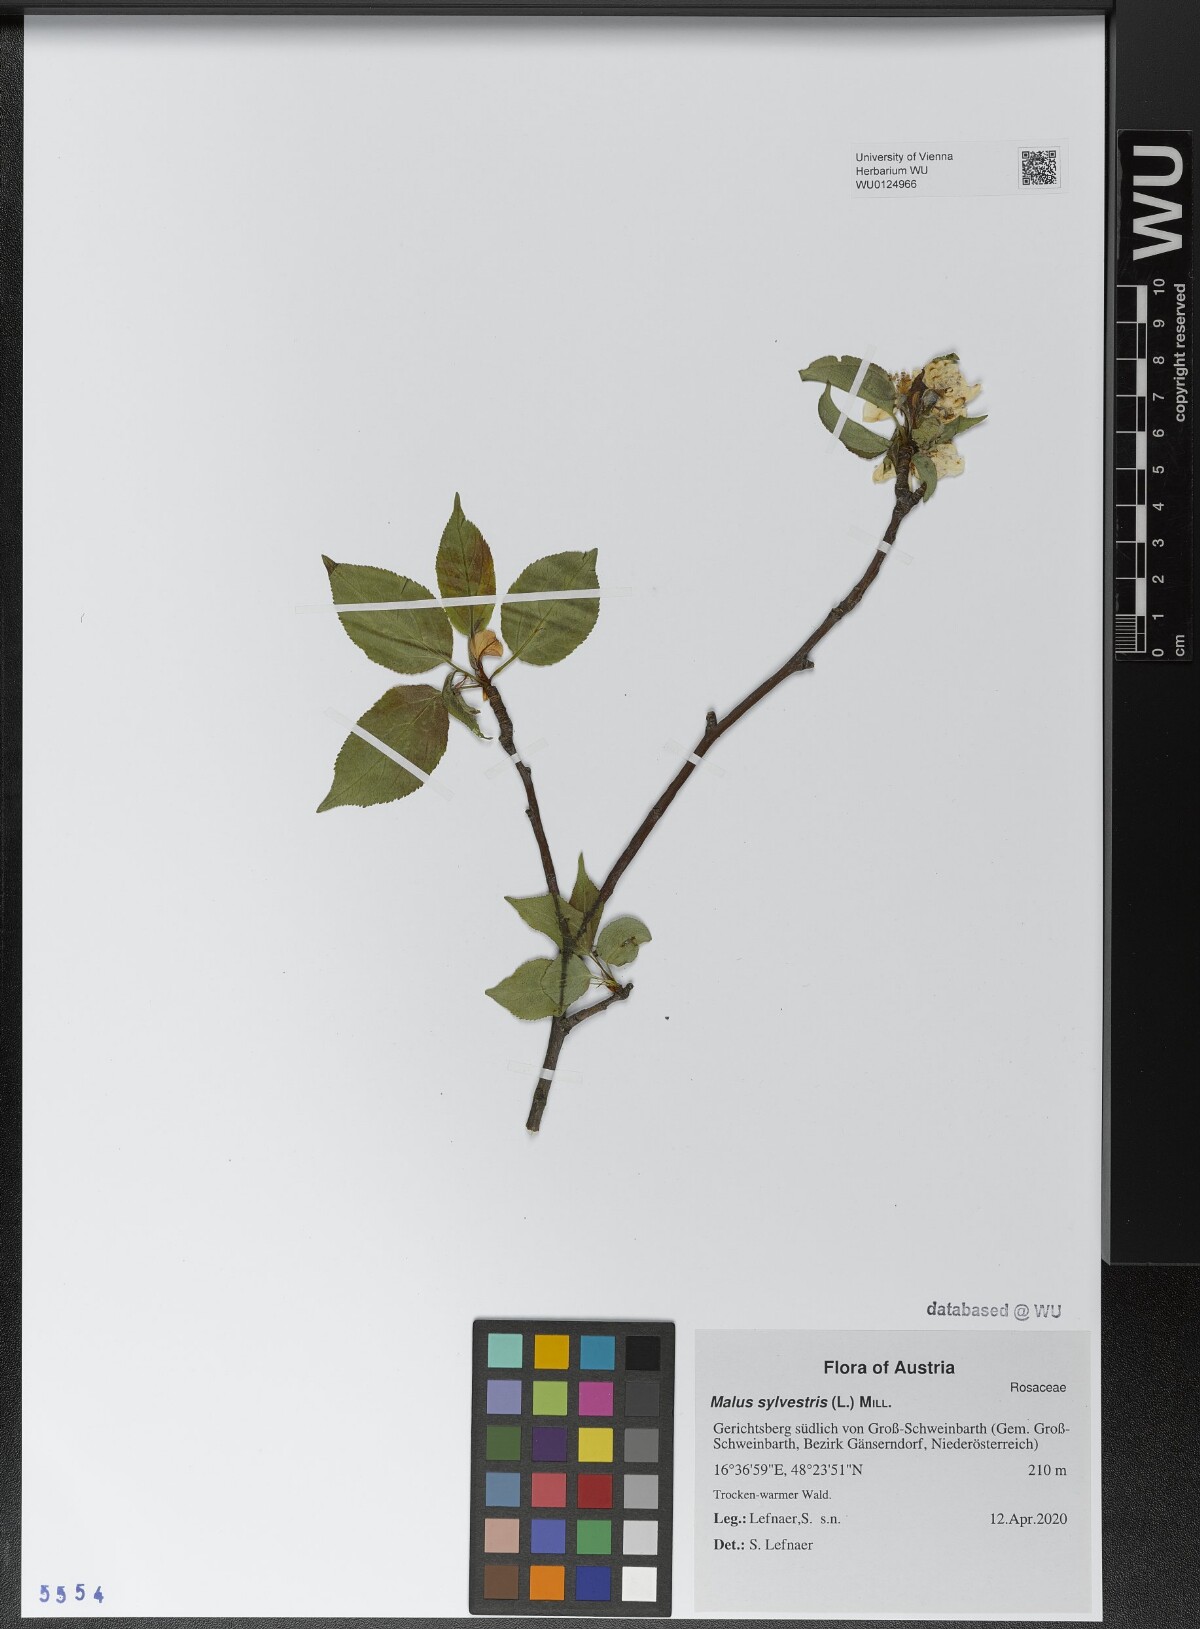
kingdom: Plantae
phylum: Tracheophyta
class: Magnoliopsida
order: Rosales
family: Rosaceae
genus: Malus
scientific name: Malus sylvestris
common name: Crab apple
